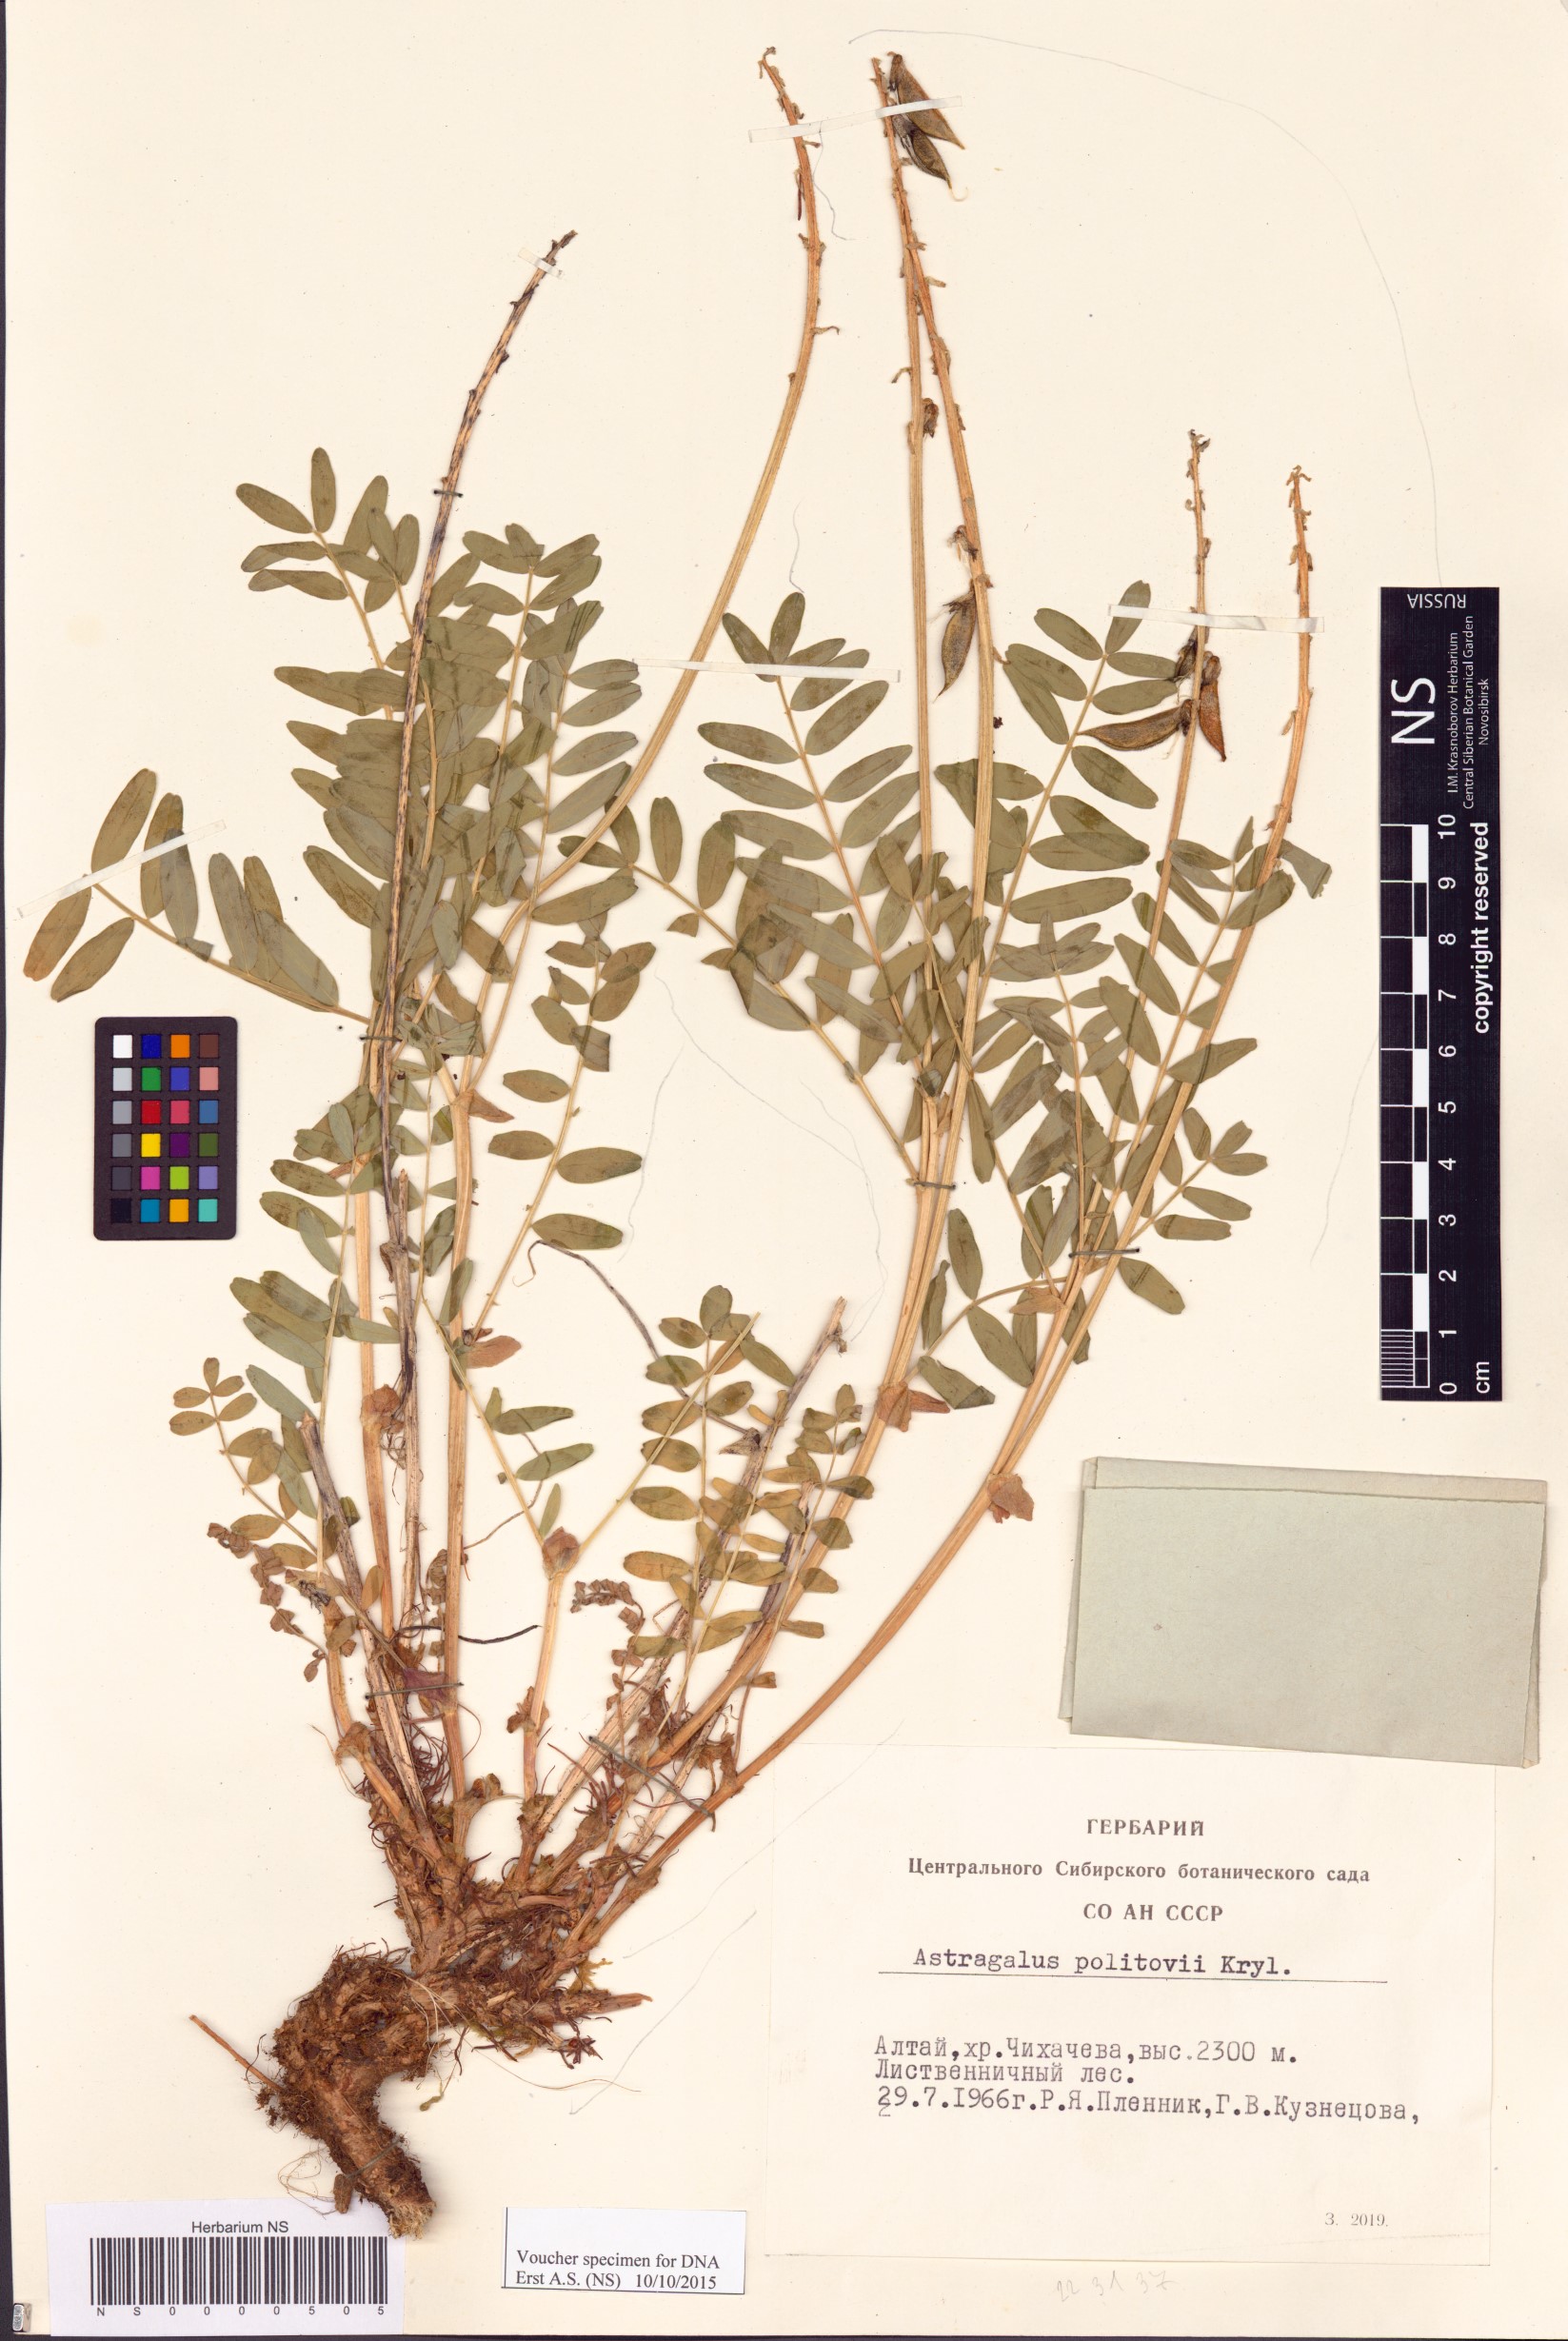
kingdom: Plantae
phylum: Tracheophyta
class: Magnoliopsida
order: Fabales
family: Fabaceae
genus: Astragalus
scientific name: Astragalus politovii
